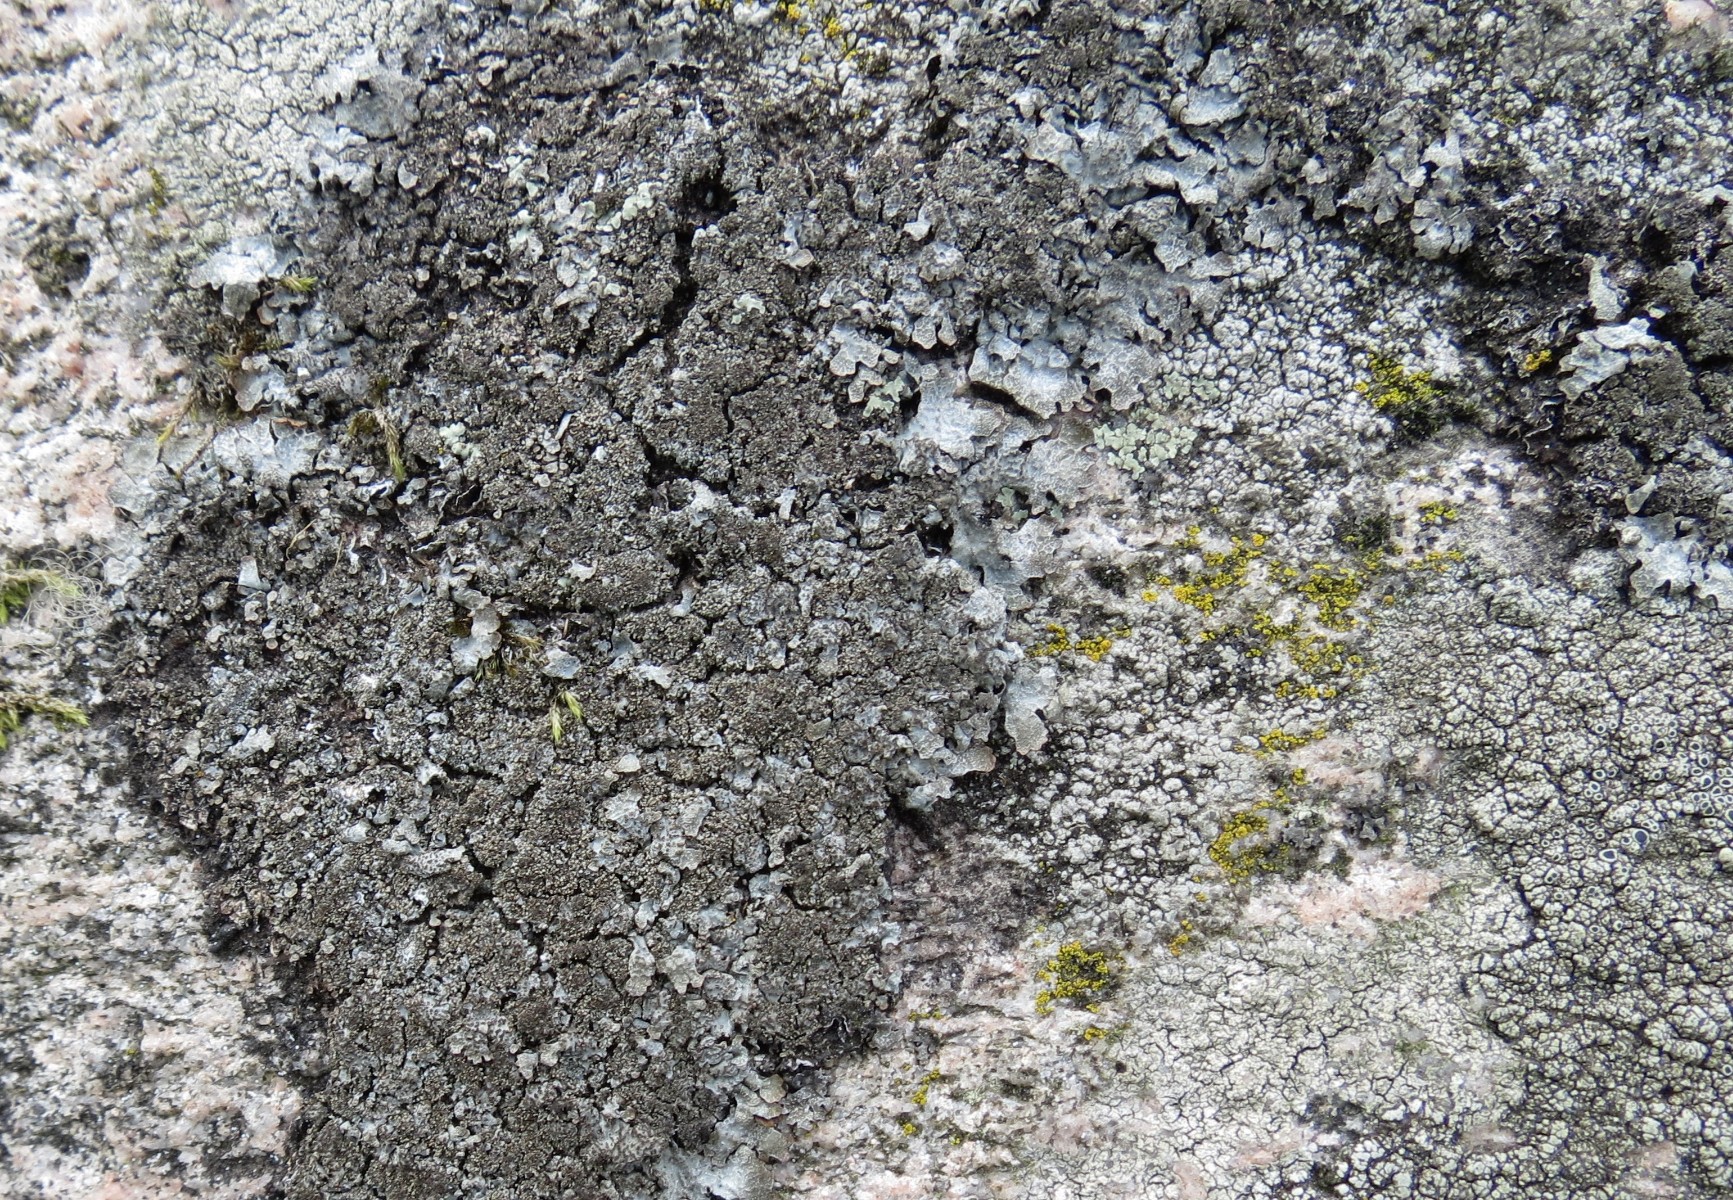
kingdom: Fungi
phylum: Ascomycota
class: Lecanoromycetes
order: Lecanorales
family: Parmeliaceae
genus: Parmelia
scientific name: Parmelia saxatilis
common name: farve-skållav
